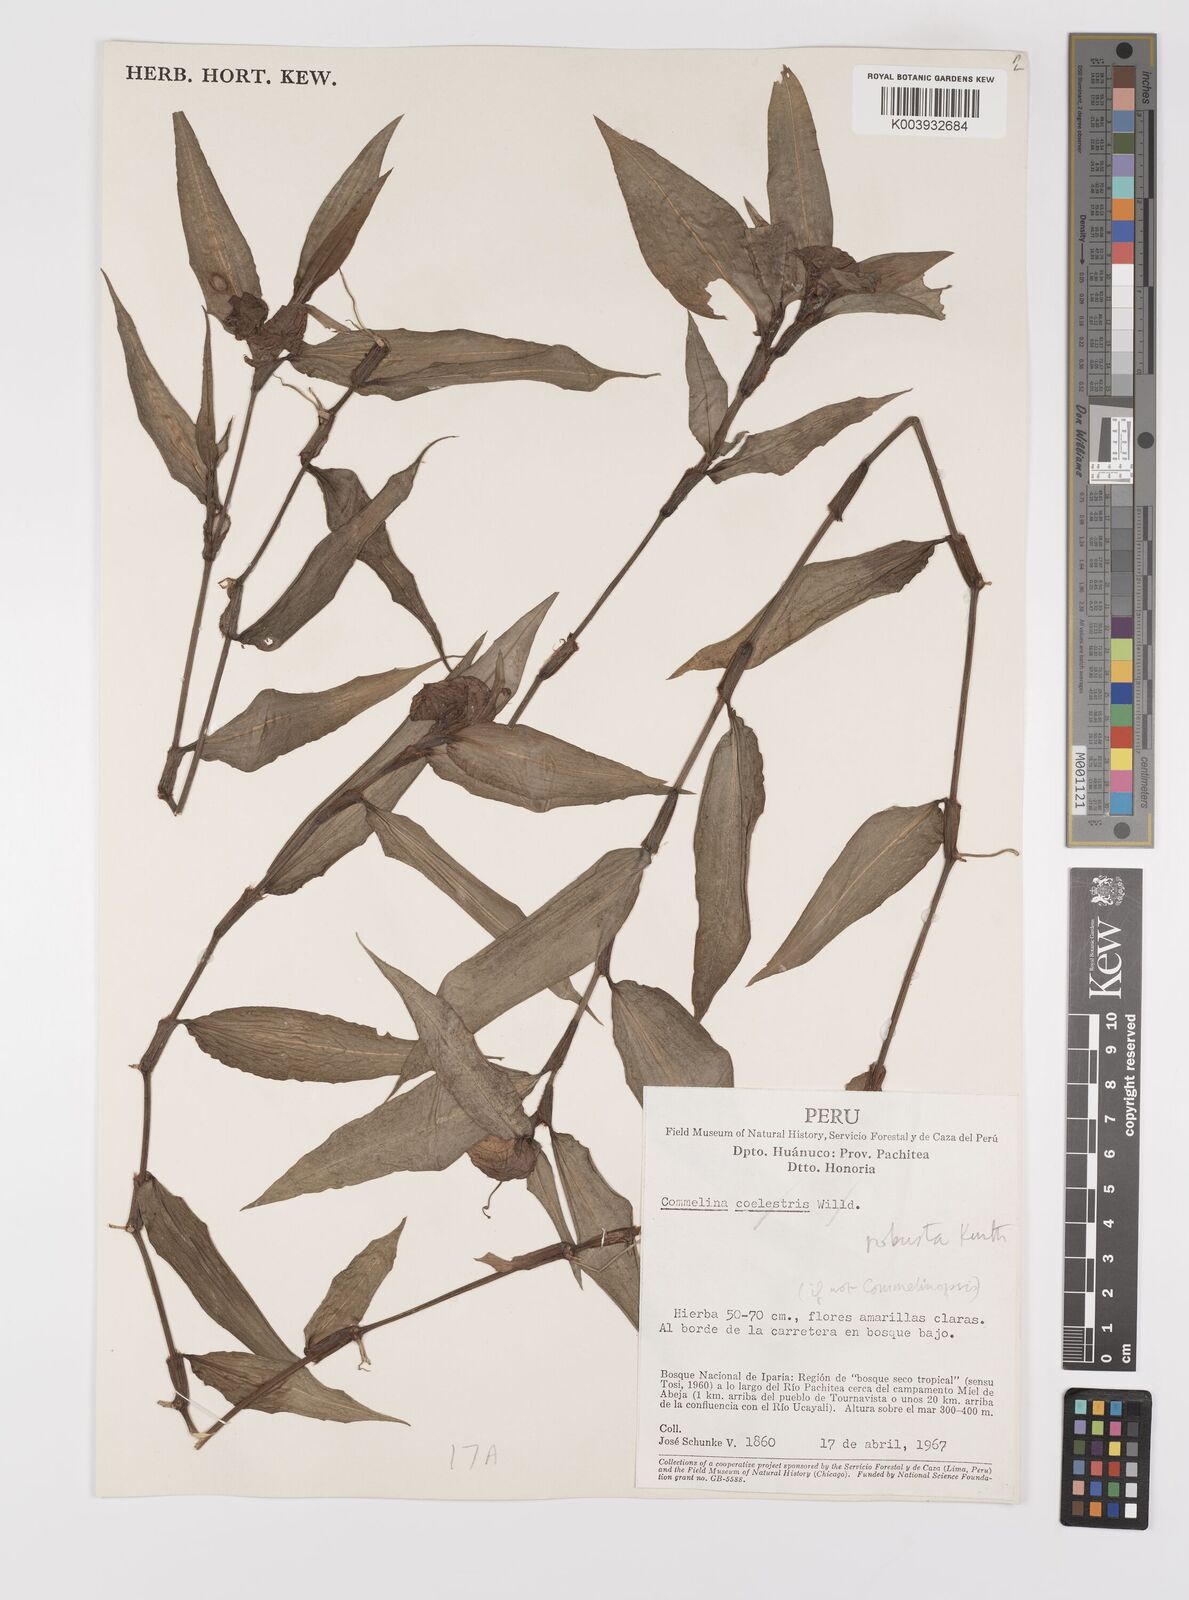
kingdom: Plantae
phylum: Tracheophyta
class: Liliopsida
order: Commelinales
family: Commelinaceae
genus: Commelina
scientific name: Commelina obliqua
